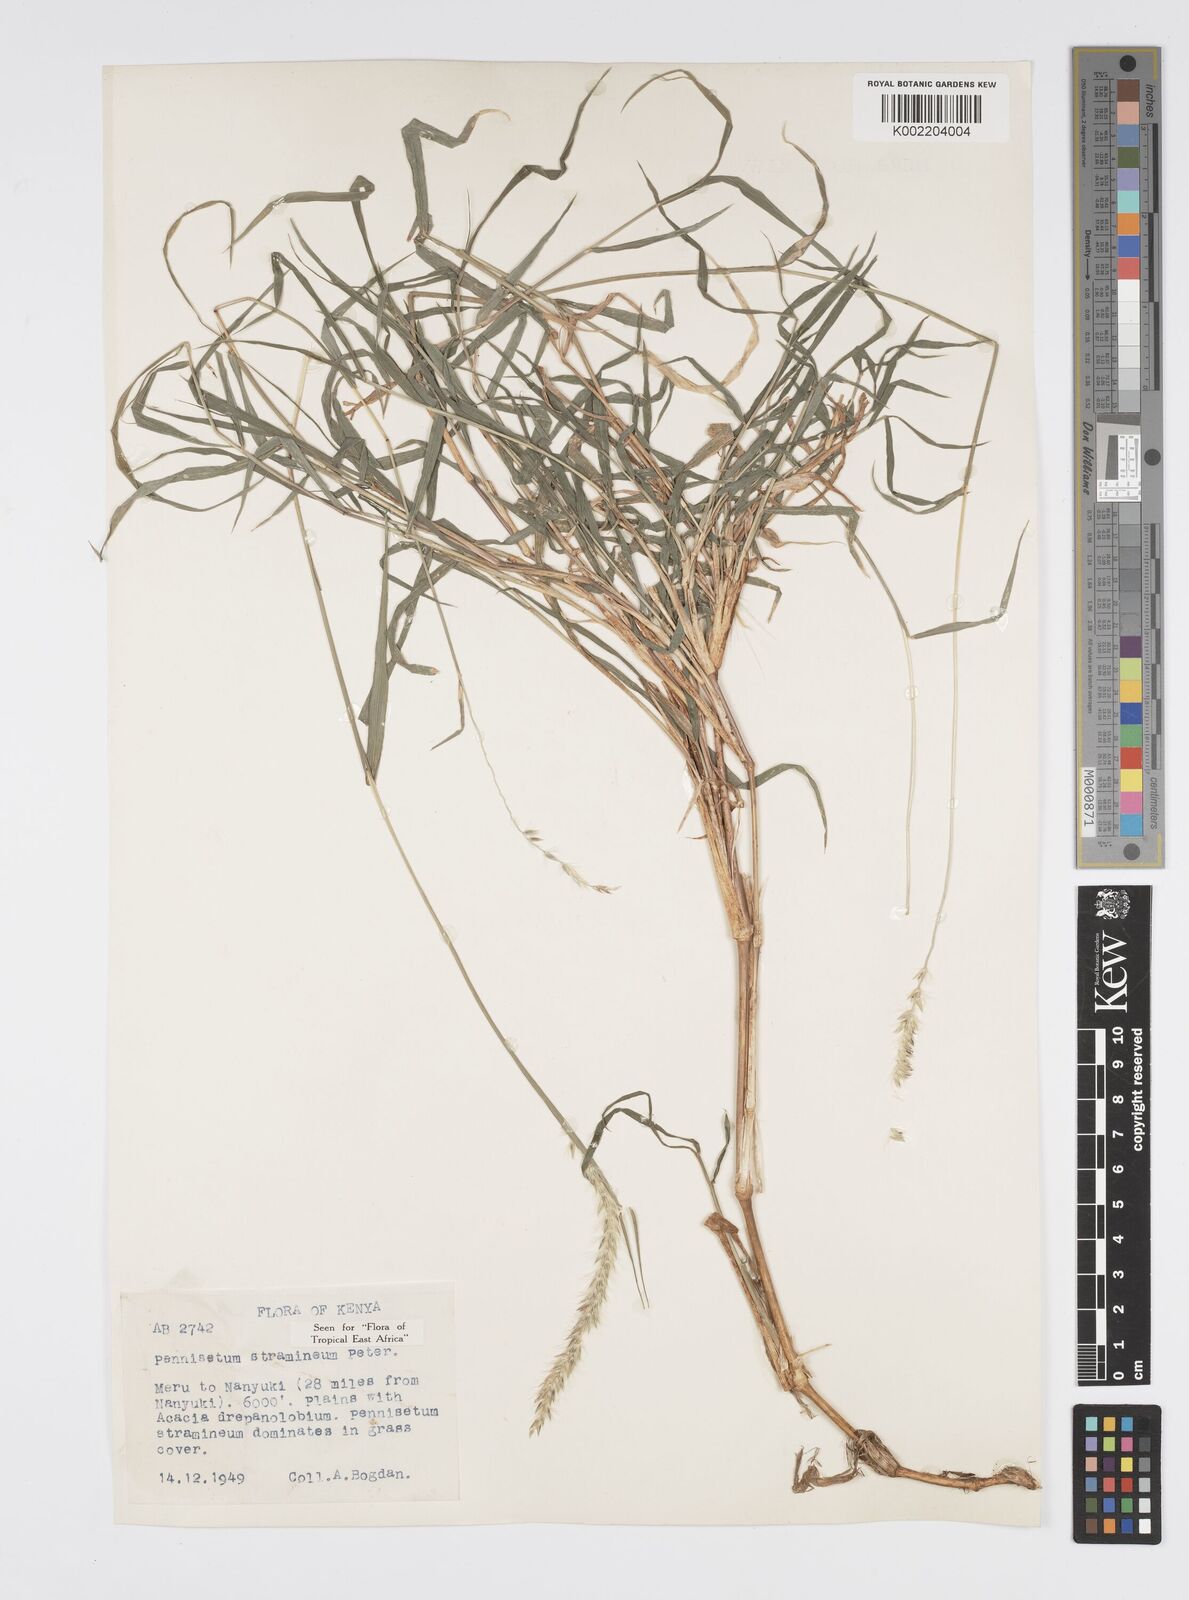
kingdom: Plantae
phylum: Tracheophyta
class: Liliopsida
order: Poales
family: Poaceae
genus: Cenchrus
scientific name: Cenchrus stramineus
